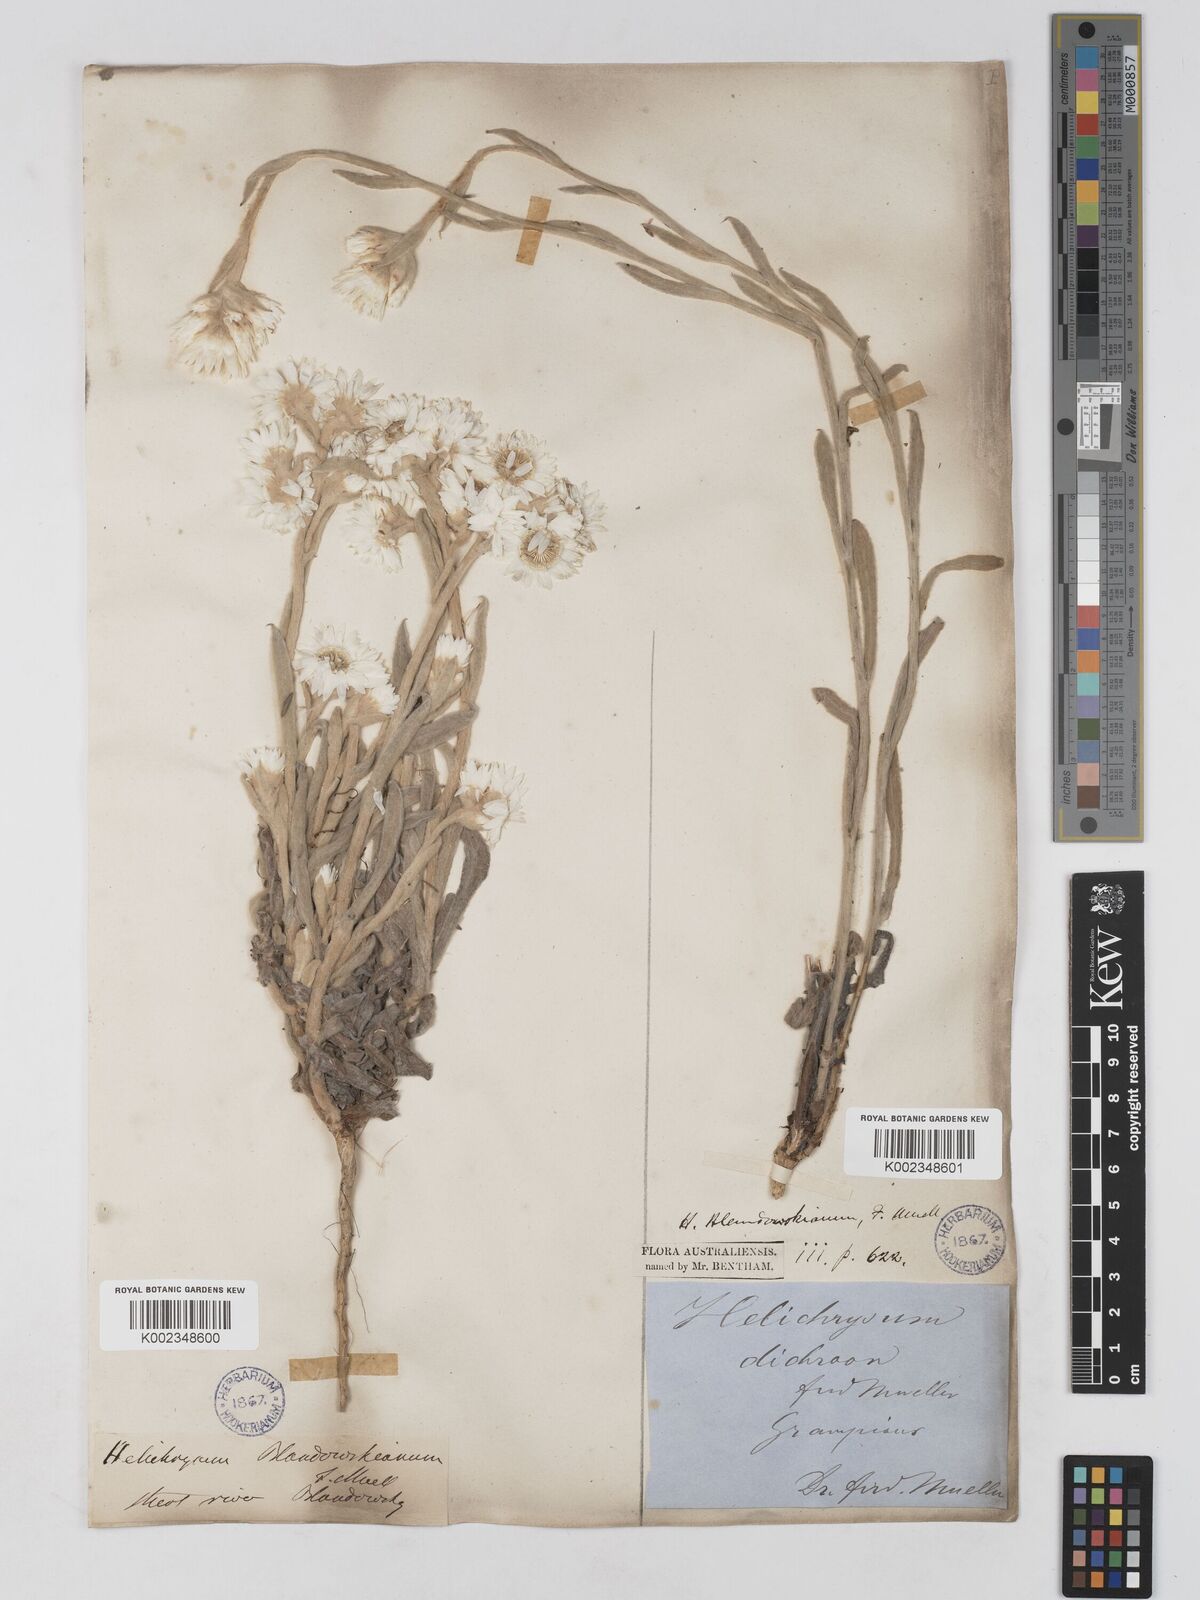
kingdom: Plantae
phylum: Tracheophyta
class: Magnoliopsida
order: Asterales
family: Asteraceae
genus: Argentipallium
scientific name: Argentipallium blandowskianum
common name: Woolly everlasting
